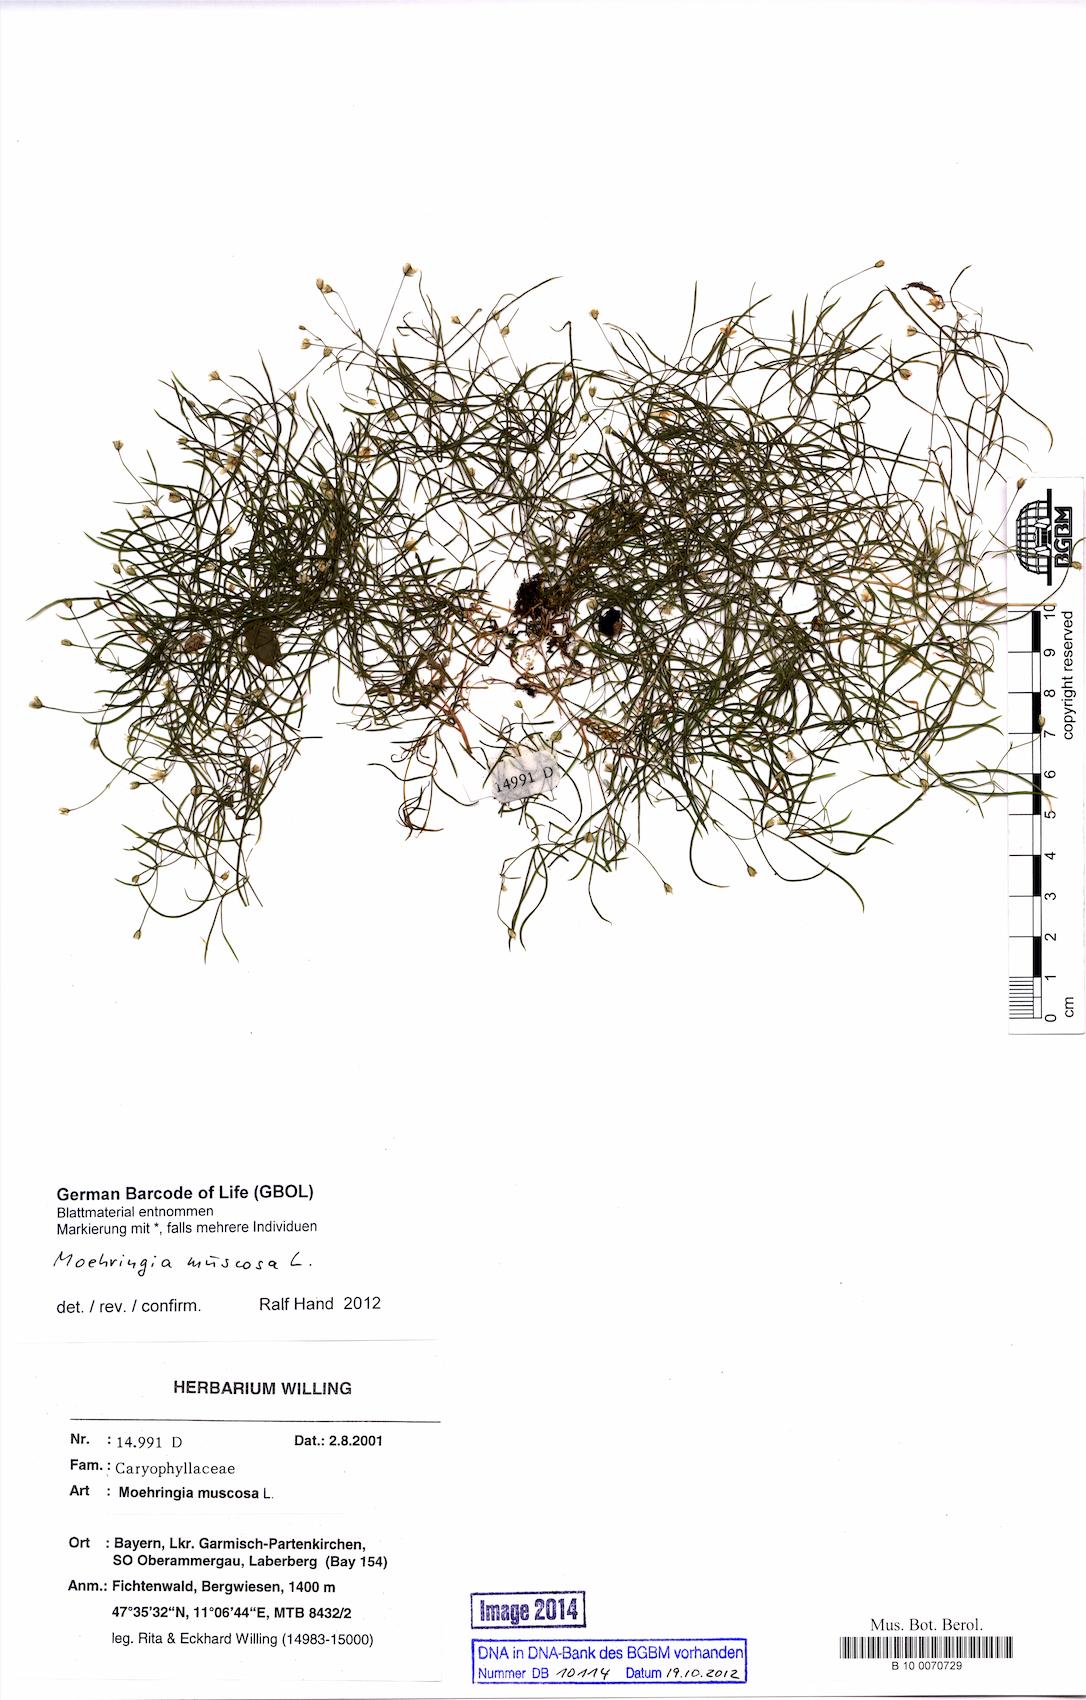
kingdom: Plantae
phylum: Tracheophyta
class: Magnoliopsida
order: Caryophyllales
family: Caryophyllaceae
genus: Moehringia
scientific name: Moehringia muscosa
